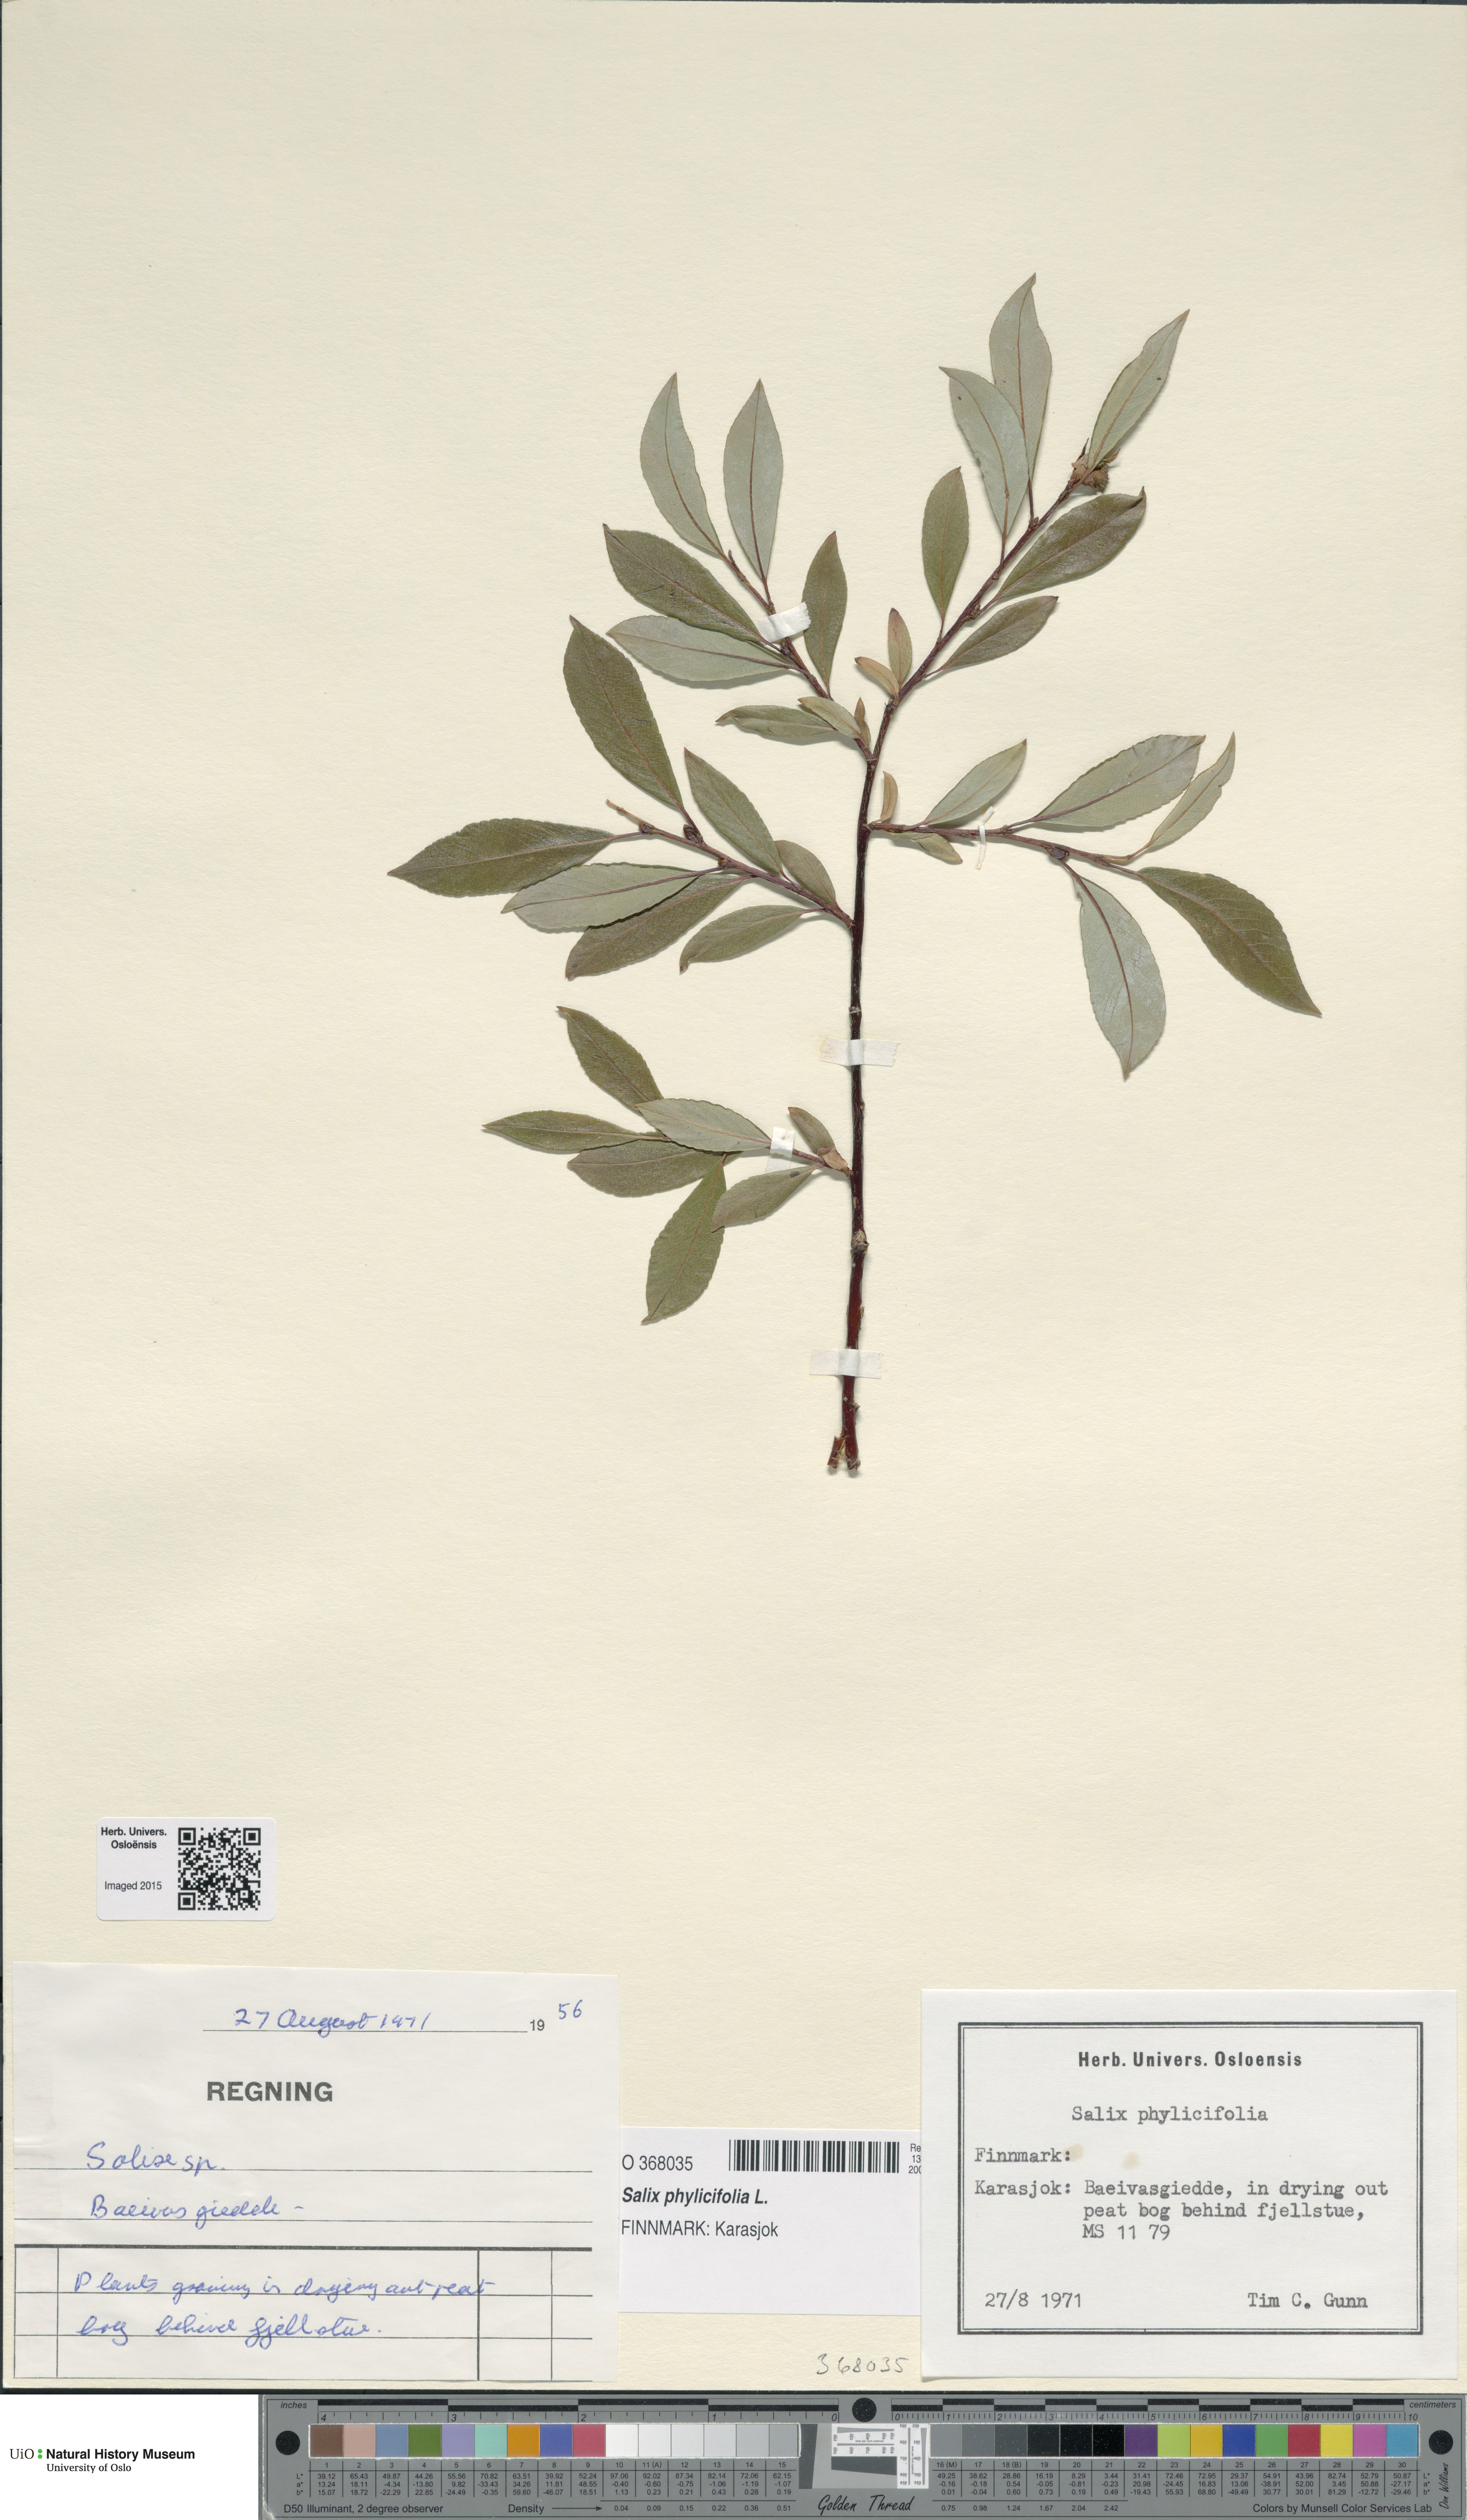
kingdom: Plantae
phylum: Tracheophyta
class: Magnoliopsida
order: Malpighiales
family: Salicaceae
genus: Salix
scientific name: Salix phylicifolia
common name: Tea-leaved willow
